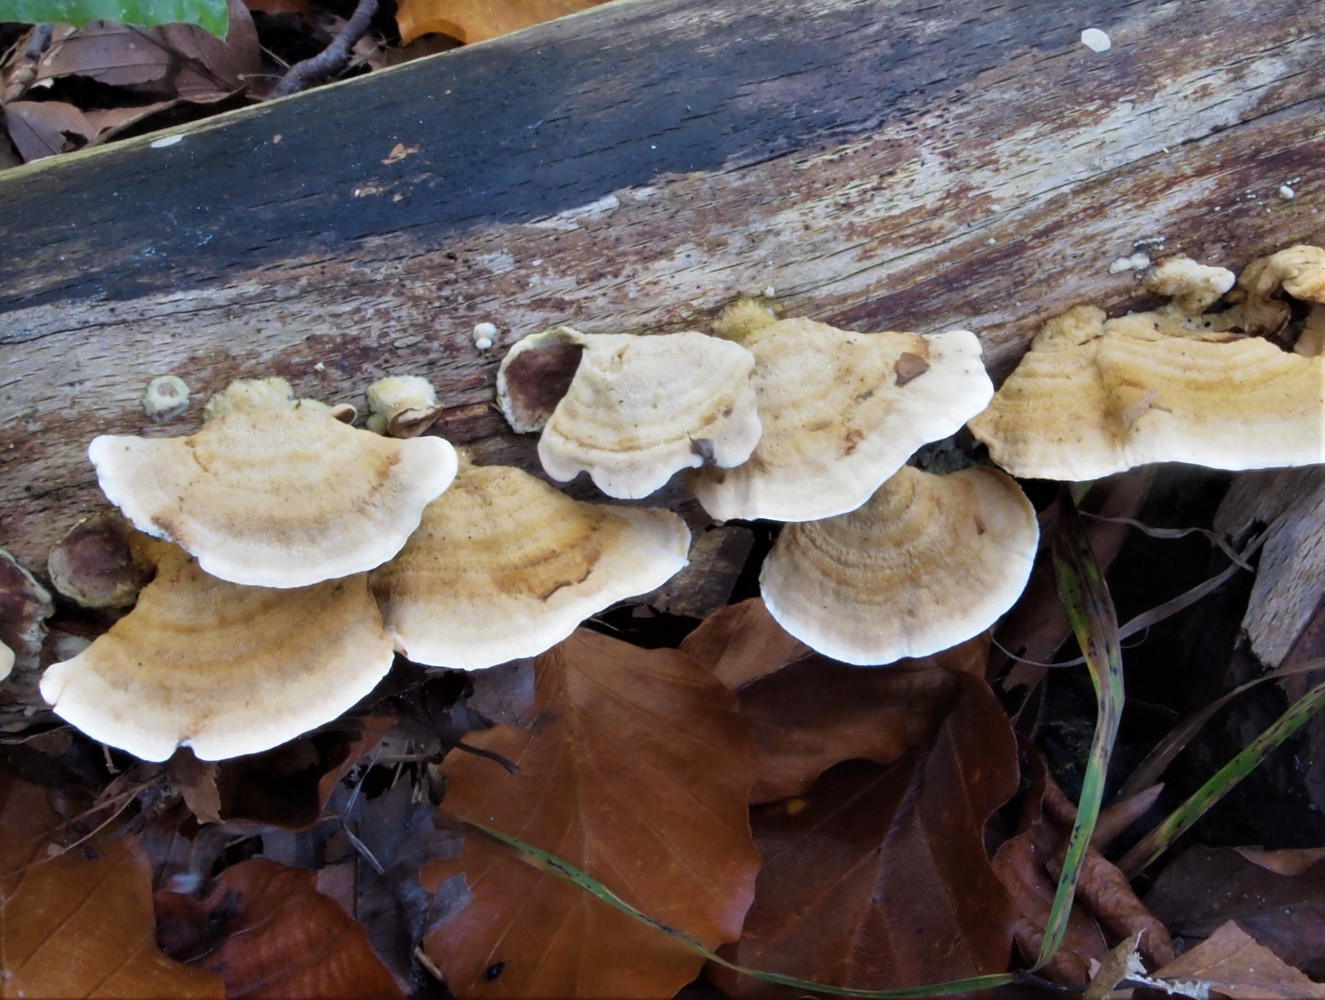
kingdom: Fungi
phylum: Basidiomycota
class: Agaricomycetes
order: Russulales
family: Stereaceae
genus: Stereum
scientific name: Stereum subtomentosum
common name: smuk lædersvamp
